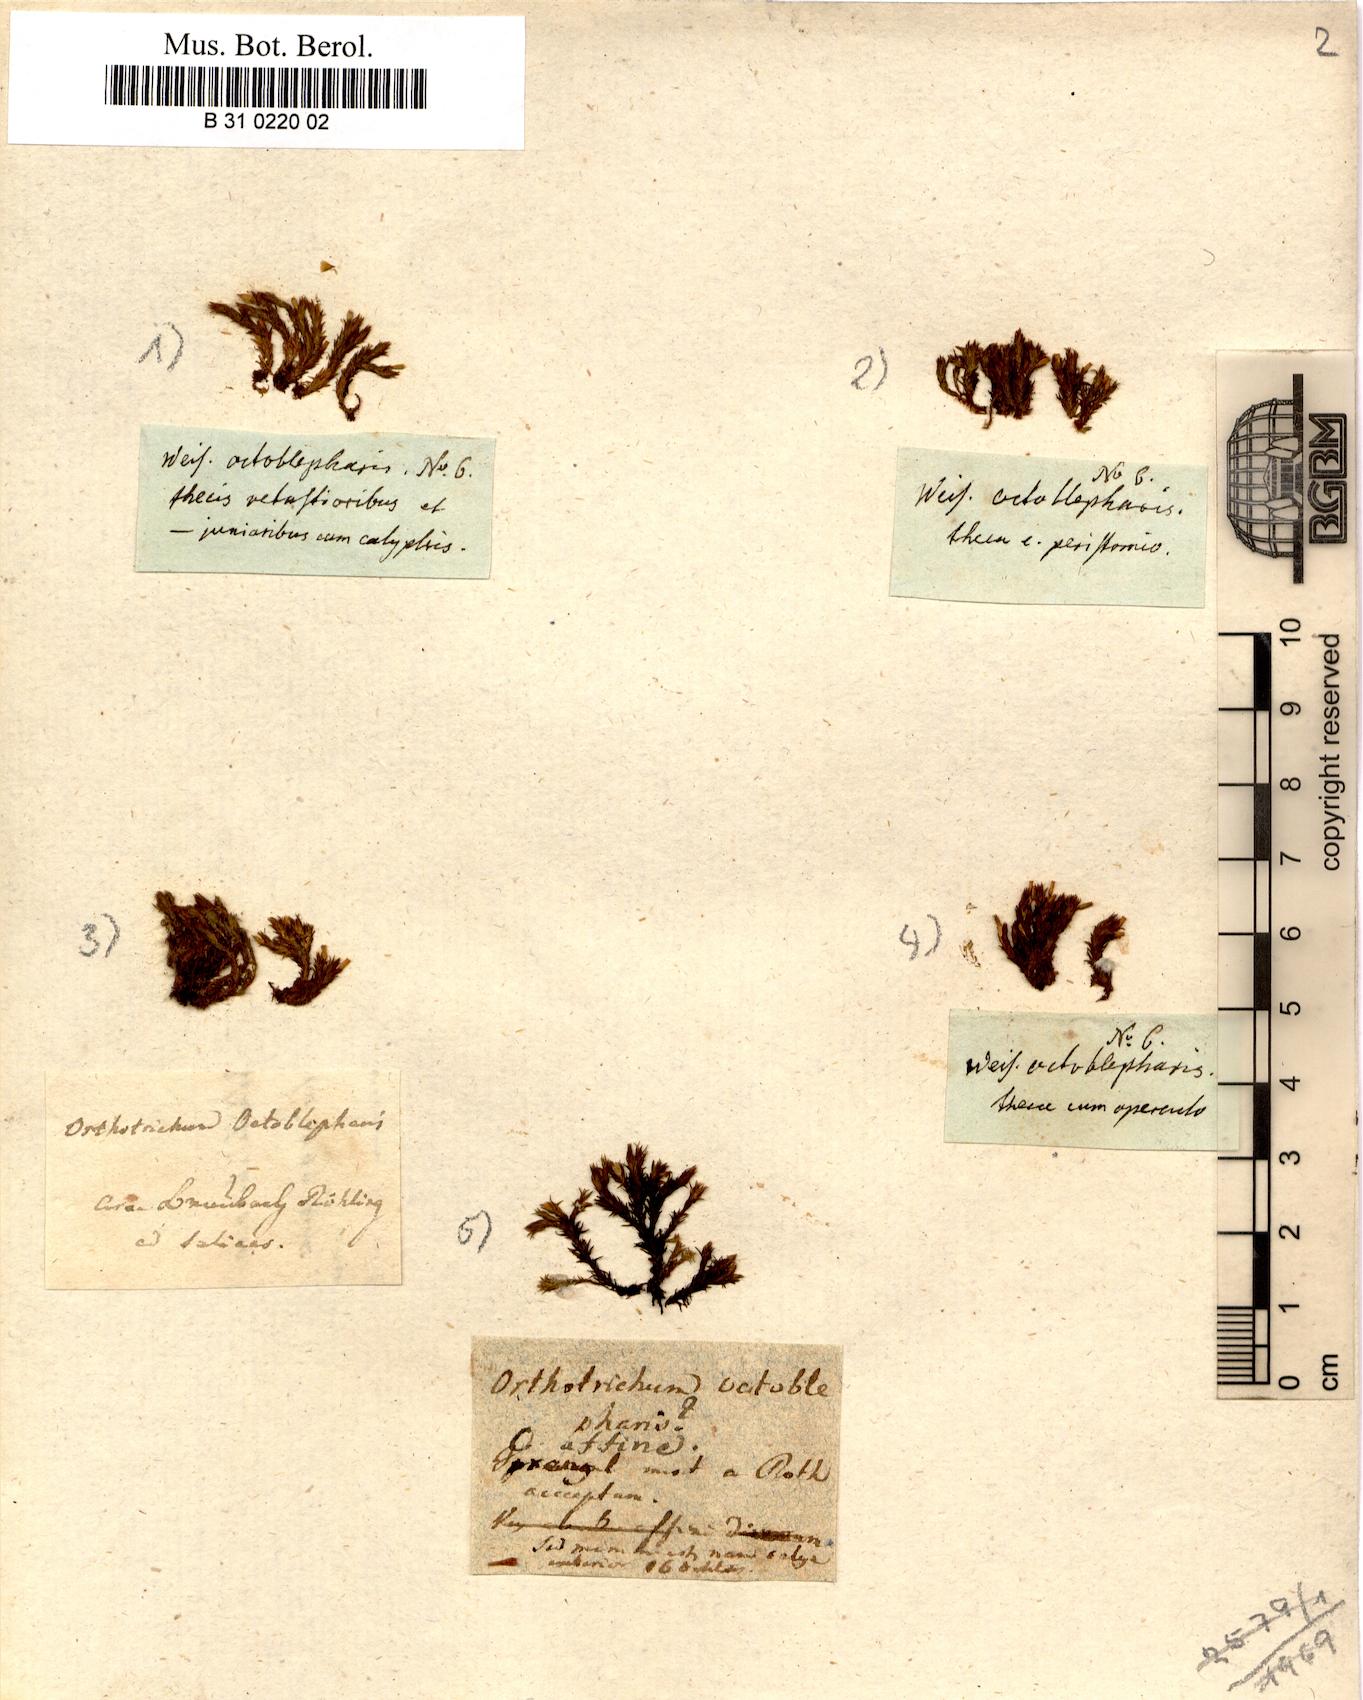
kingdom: Plantae
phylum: Bryophyta
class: Bryopsida
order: Orthotrichales
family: Orthotrichaceae
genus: Lewinskya
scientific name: Lewinskya affinis
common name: Wood bristle-moss
